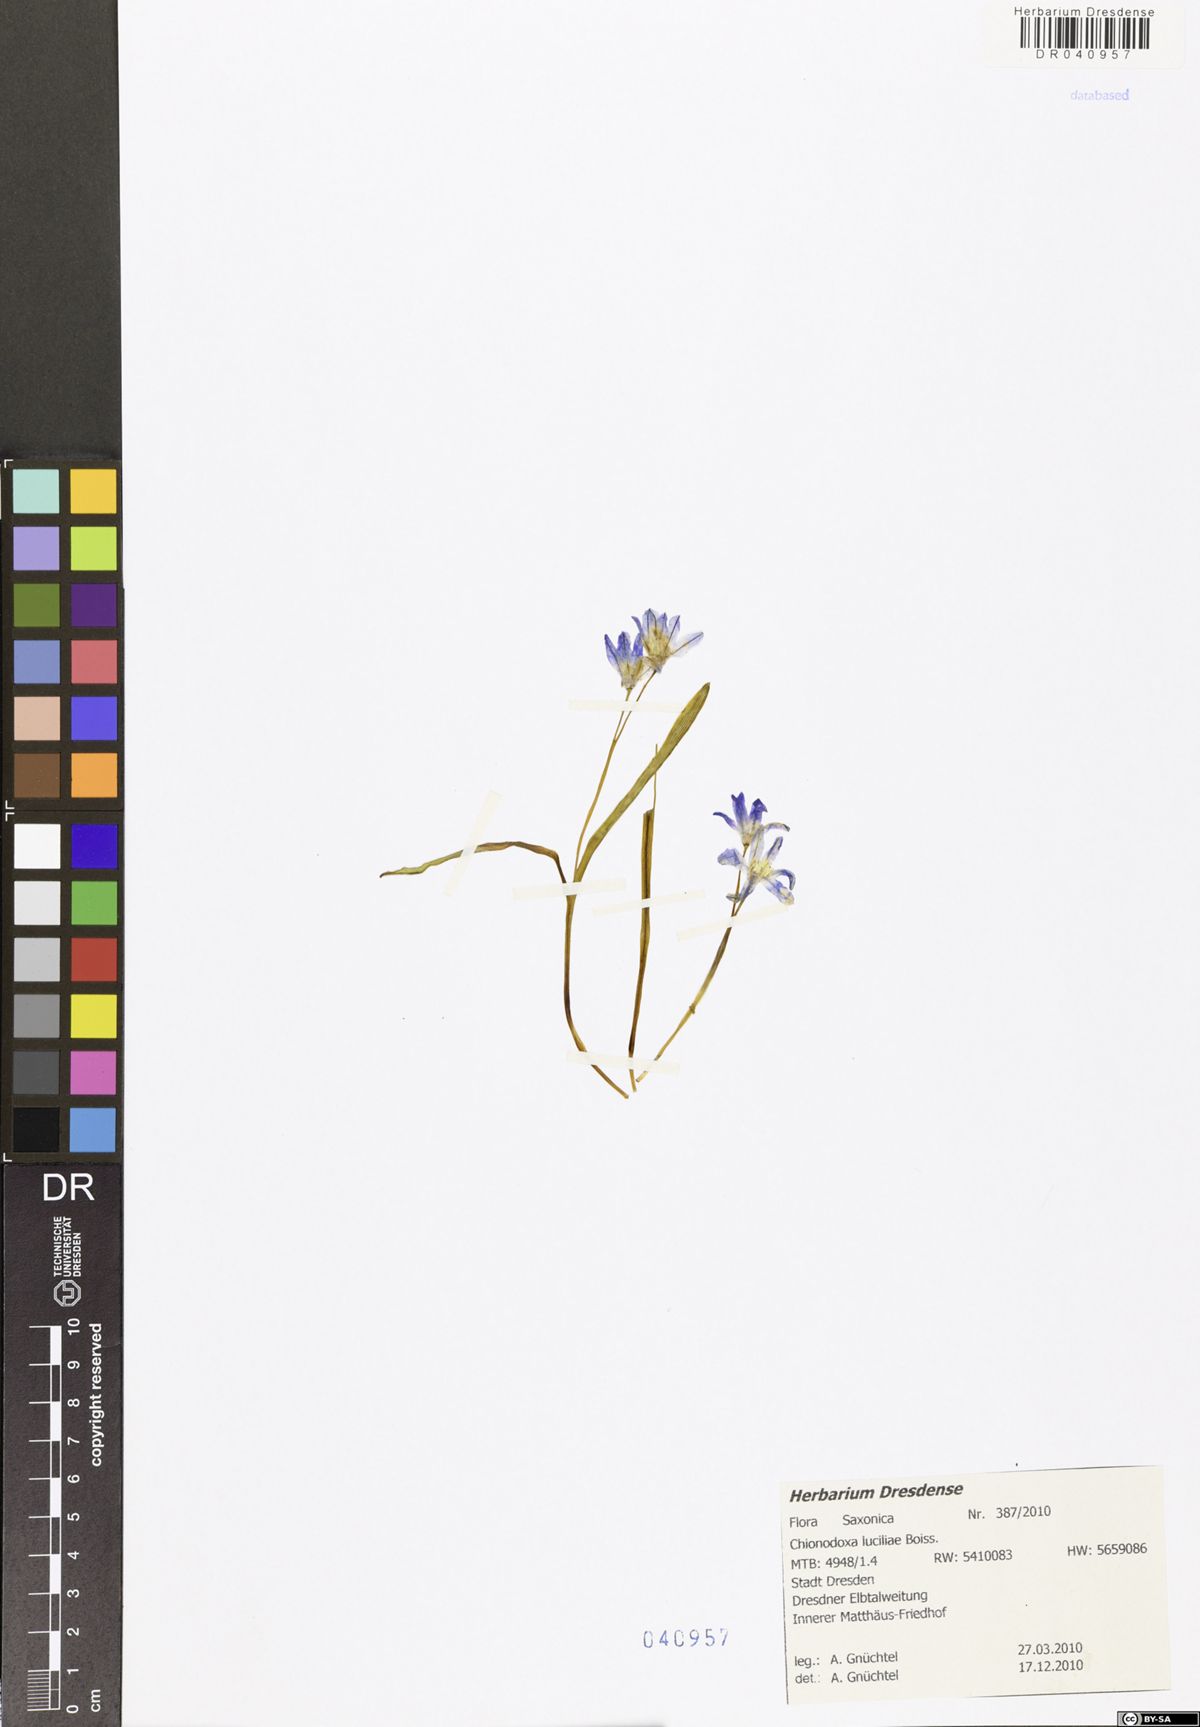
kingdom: Plantae
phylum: Tracheophyta
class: Liliopsida
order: Asparagales
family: Asparagaceae
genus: Scilla
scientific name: Scilla luciliae
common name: Boissier's glory-of-the-snow
